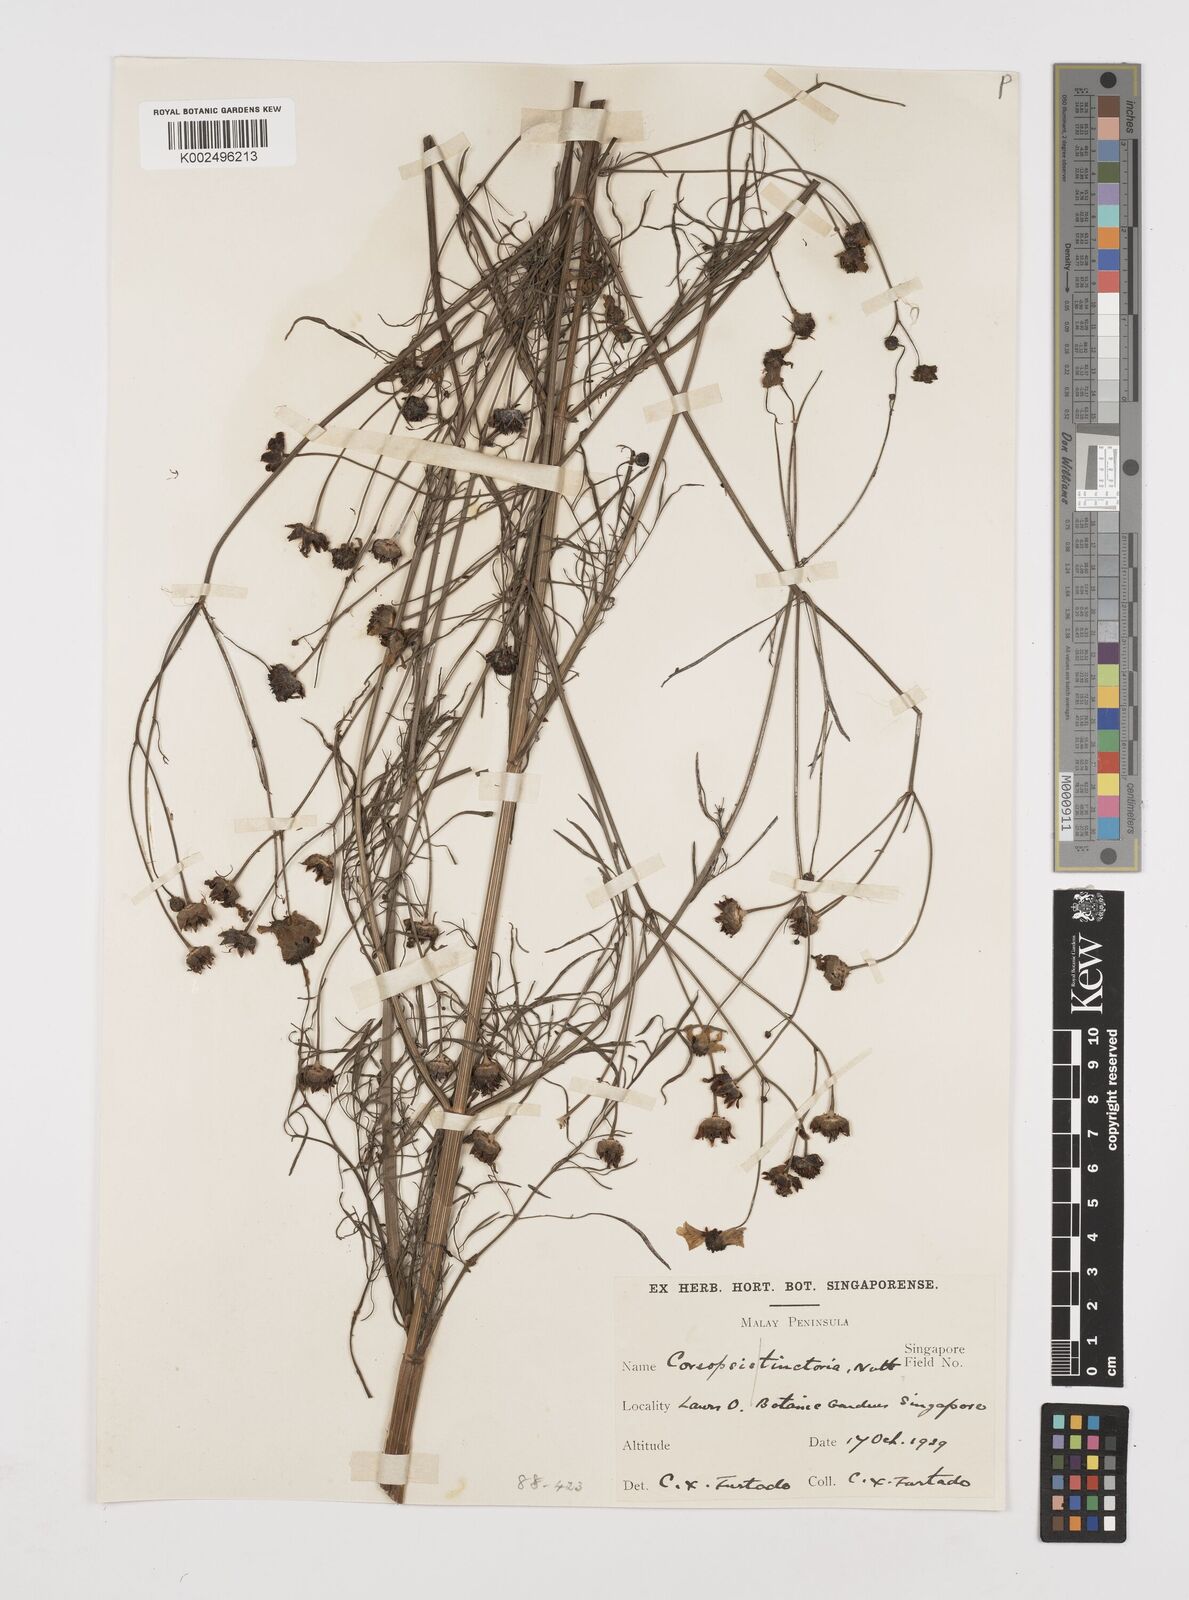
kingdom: Plantae
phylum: Tracheophyta
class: Magnoliopsida
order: Asterales
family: Asteraceae
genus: Coreopsis
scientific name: Coreopsis tinctoria
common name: Garden tickseed
